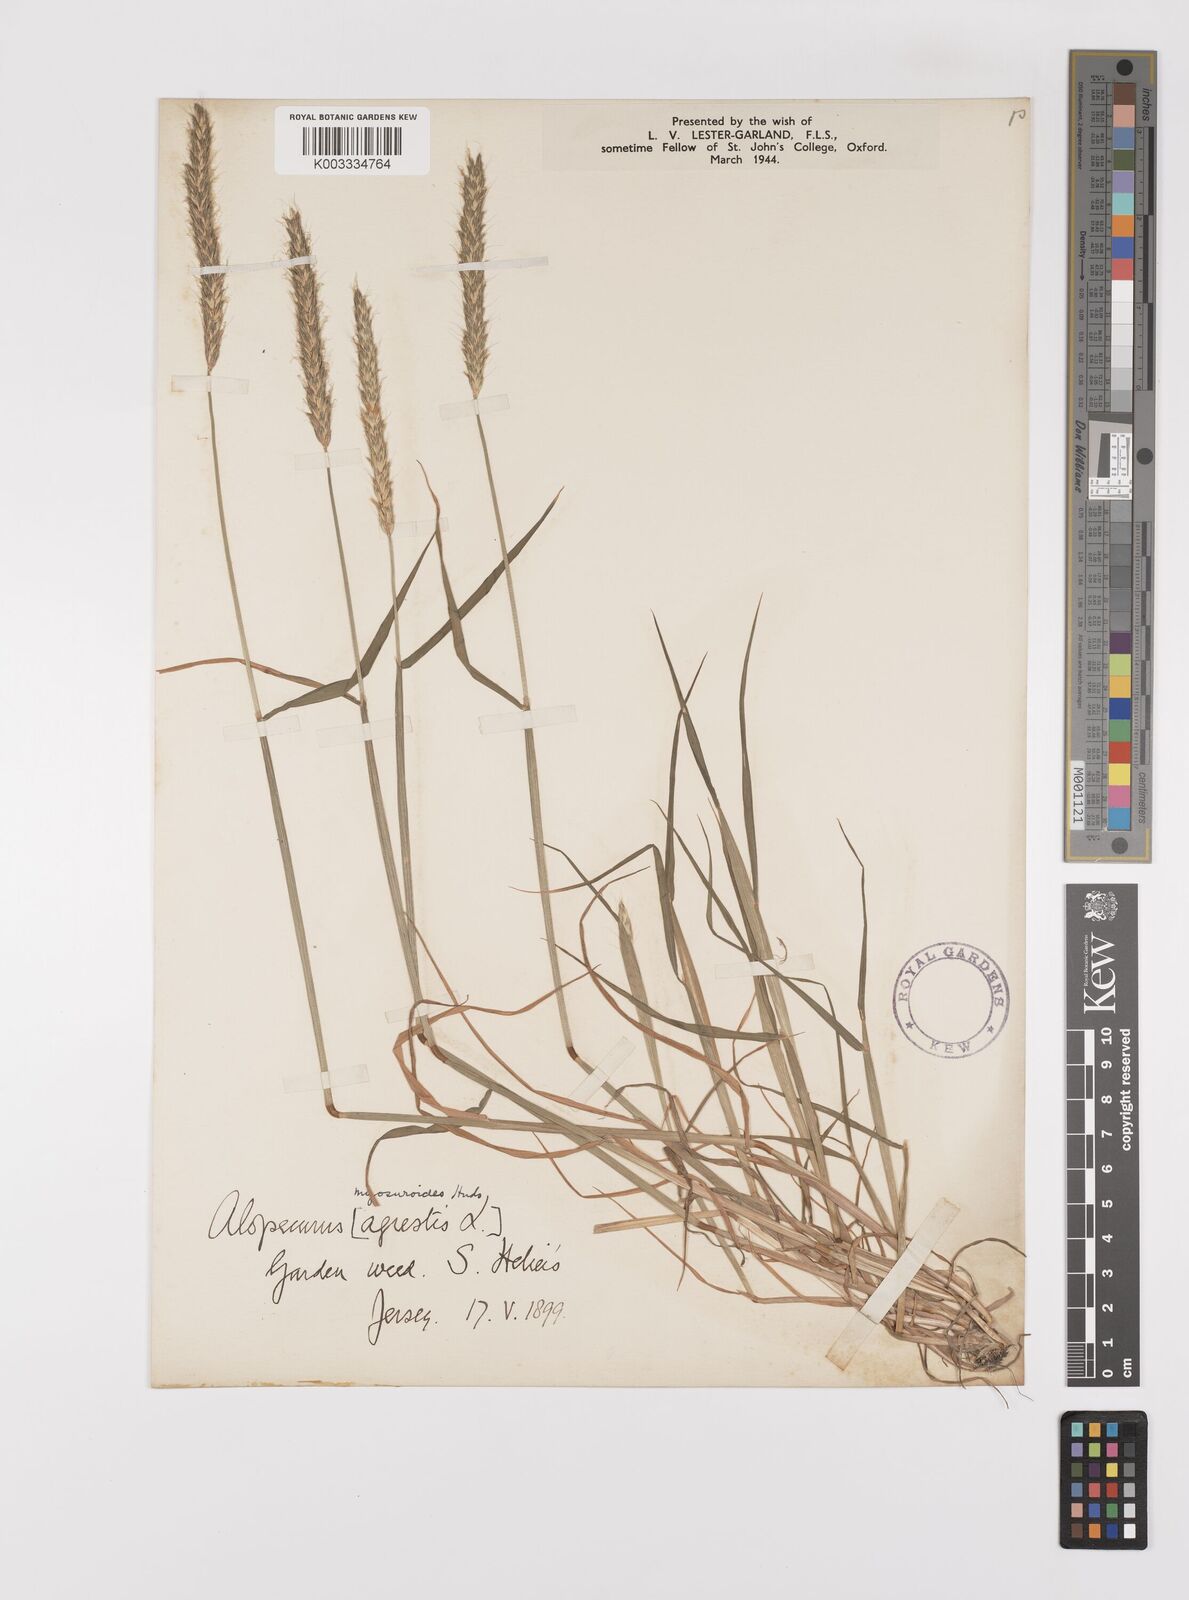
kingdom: Plantae
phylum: Tracheophyta
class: Liliopsida
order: Poales
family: Poaceae
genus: Alopecurus
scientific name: Alopecurus myosuroides
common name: Black-grass
